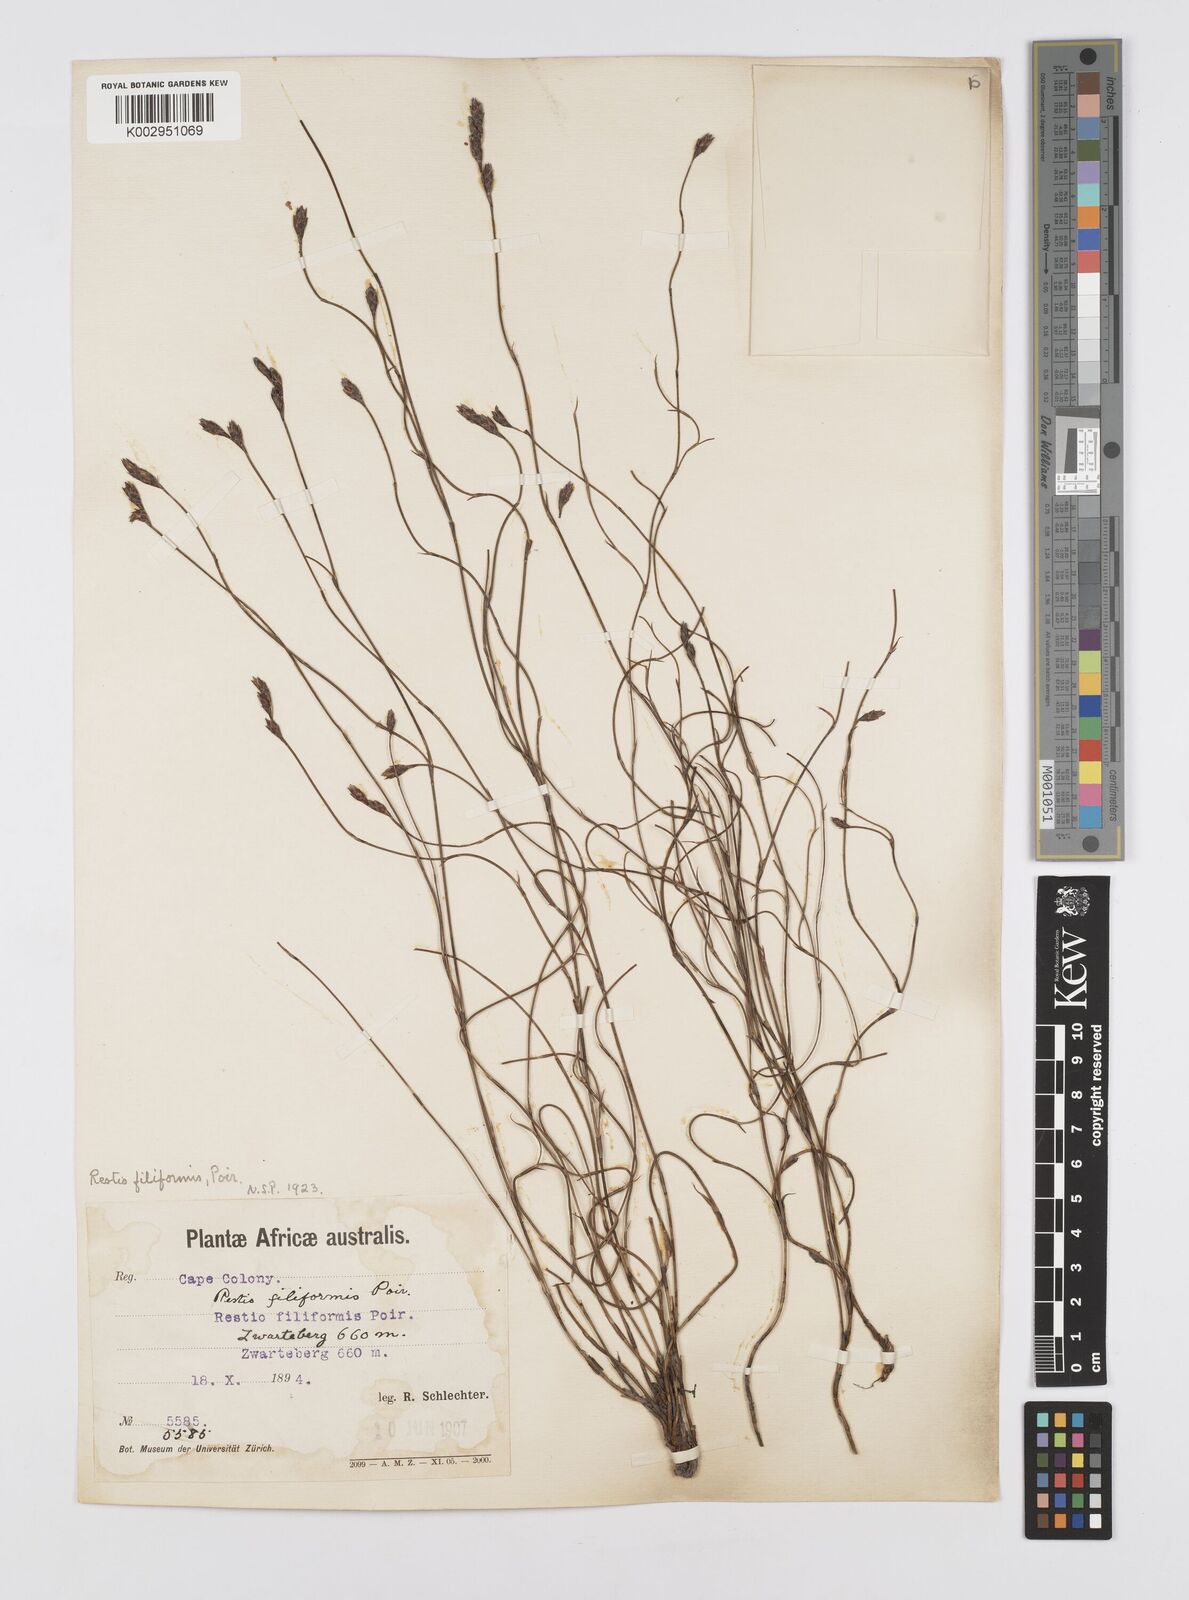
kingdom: Plantae
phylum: Tracheophyta
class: Liliopsida
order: Poales
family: Restionaceae
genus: Restio
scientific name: Restio filiformis
